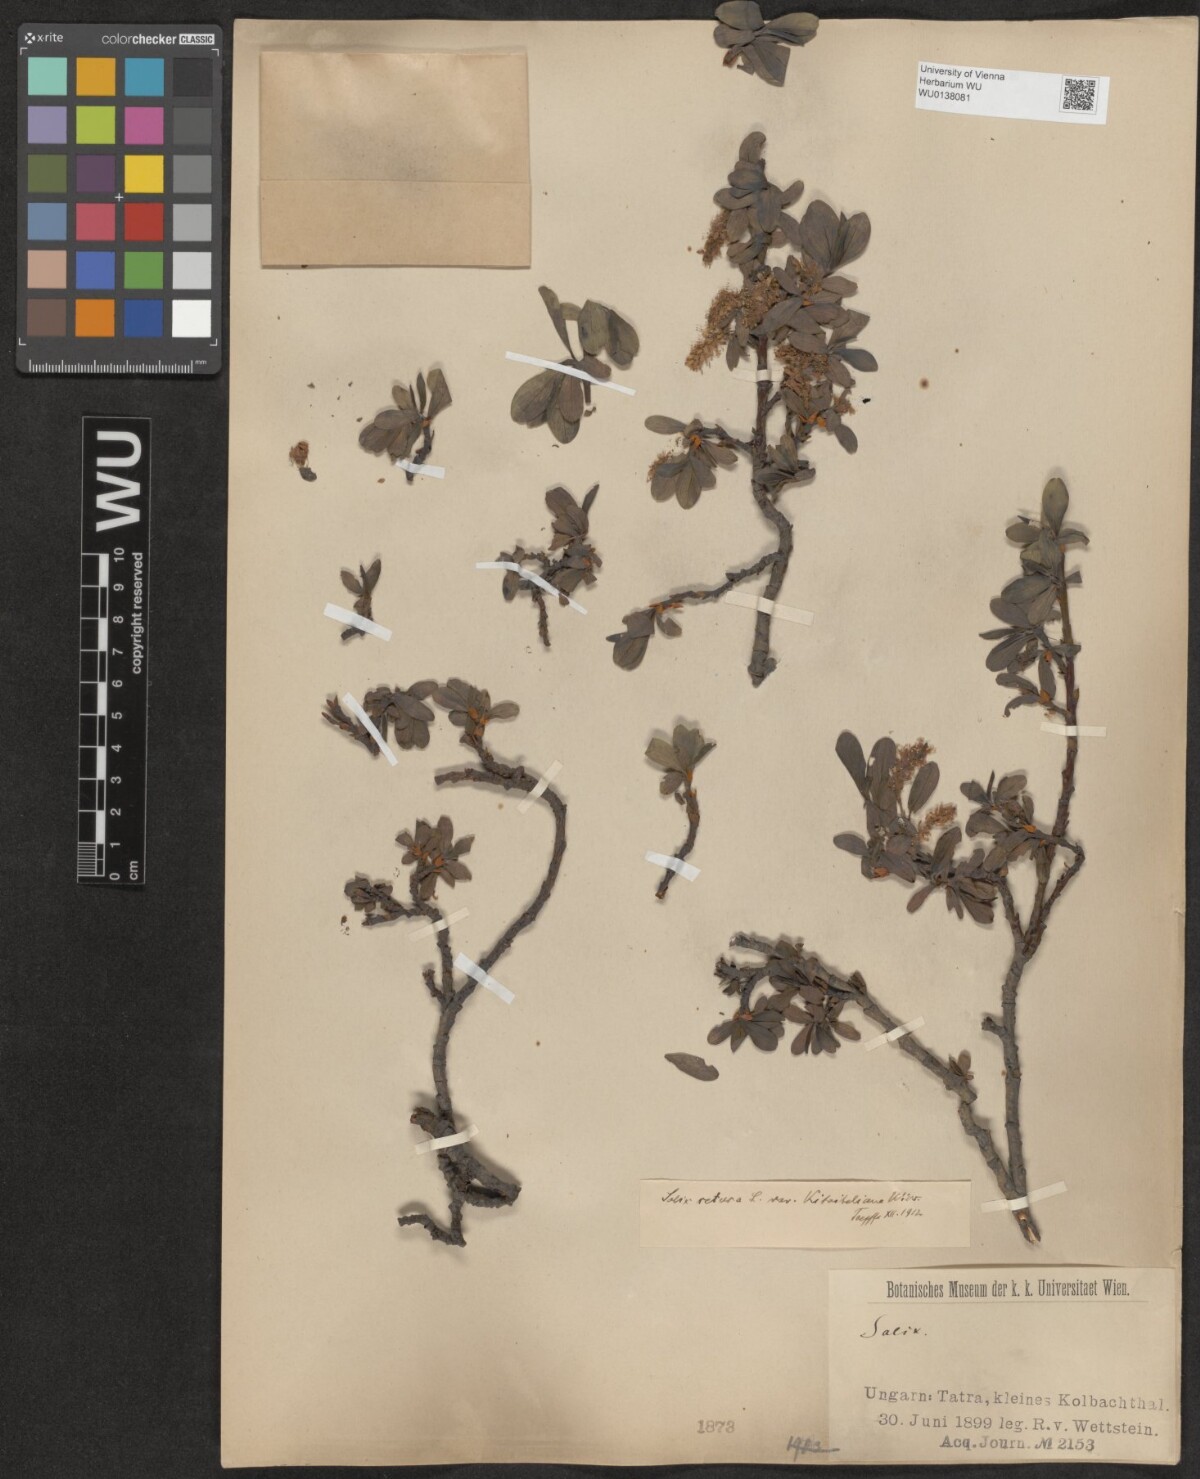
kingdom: Plantae
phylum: Tracheophyta
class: Magnoliopsida
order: Malpighiales
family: Salicaceae
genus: Salix
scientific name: Salix retusa
